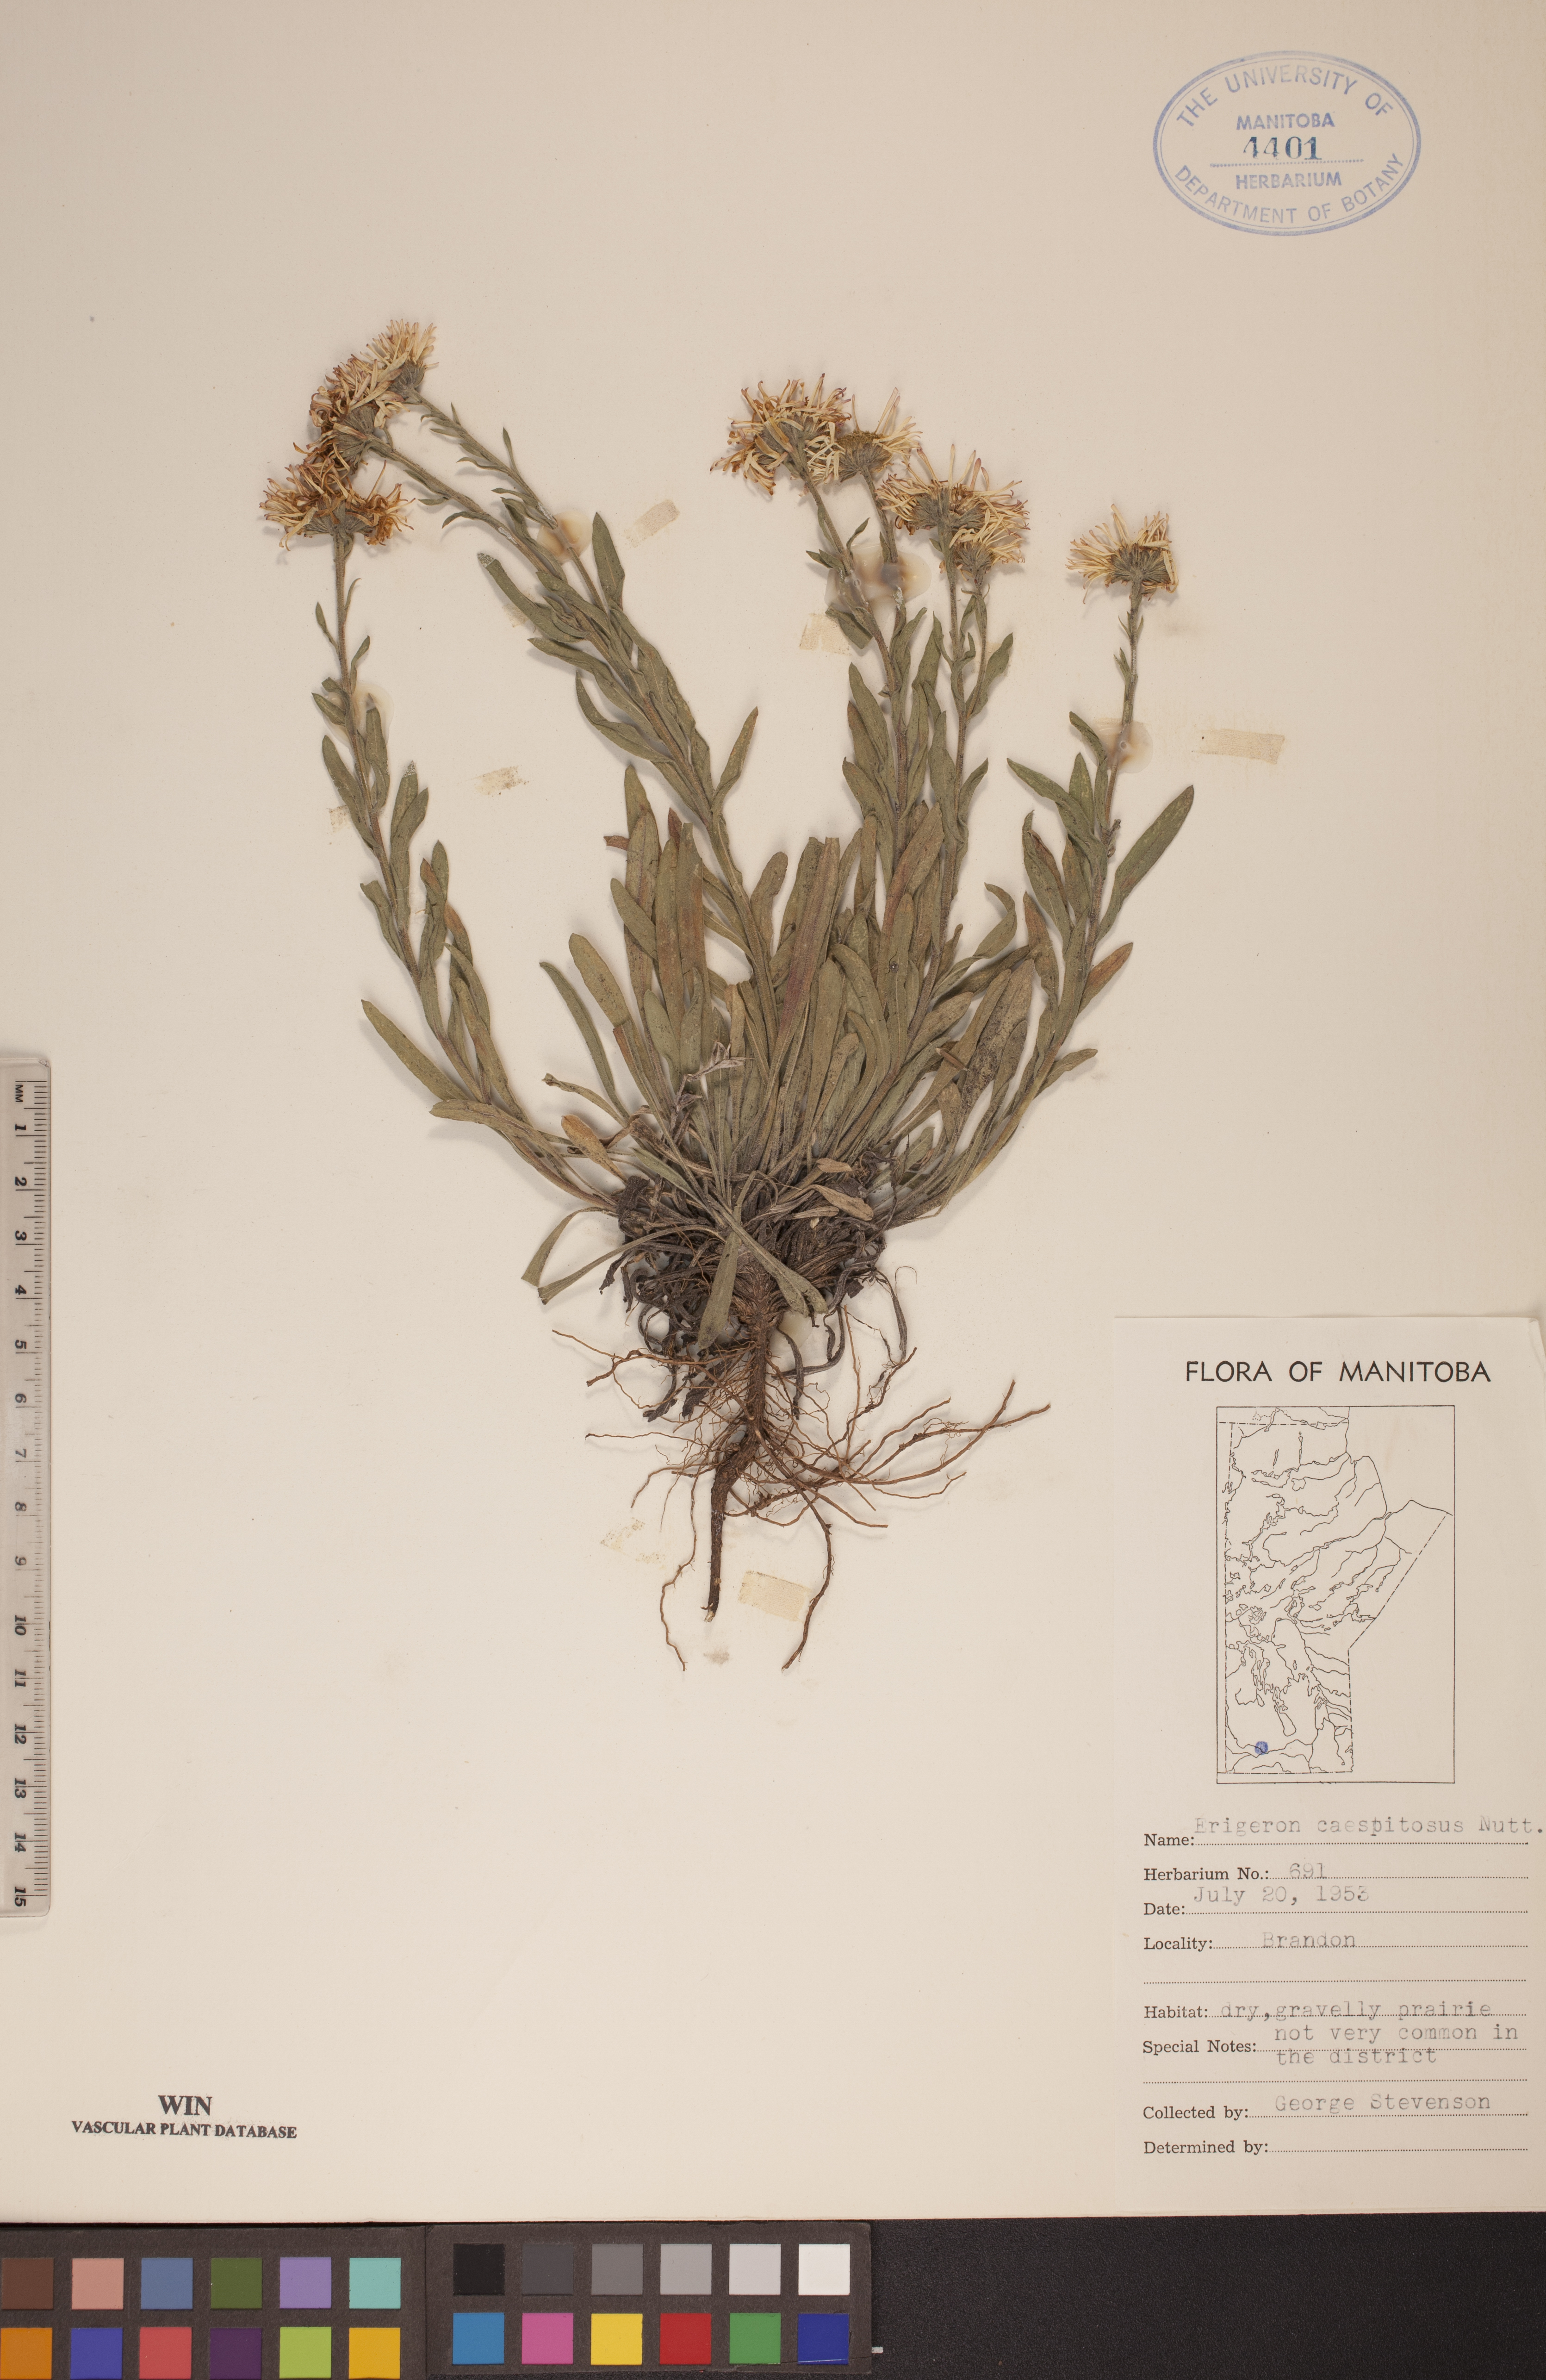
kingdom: Plantae
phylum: Tracheophyta
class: Magnoliopsida
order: Asterales
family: Asteraceae
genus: Erigeron
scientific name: Erigeron caespitosus
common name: Tufted fleabane
